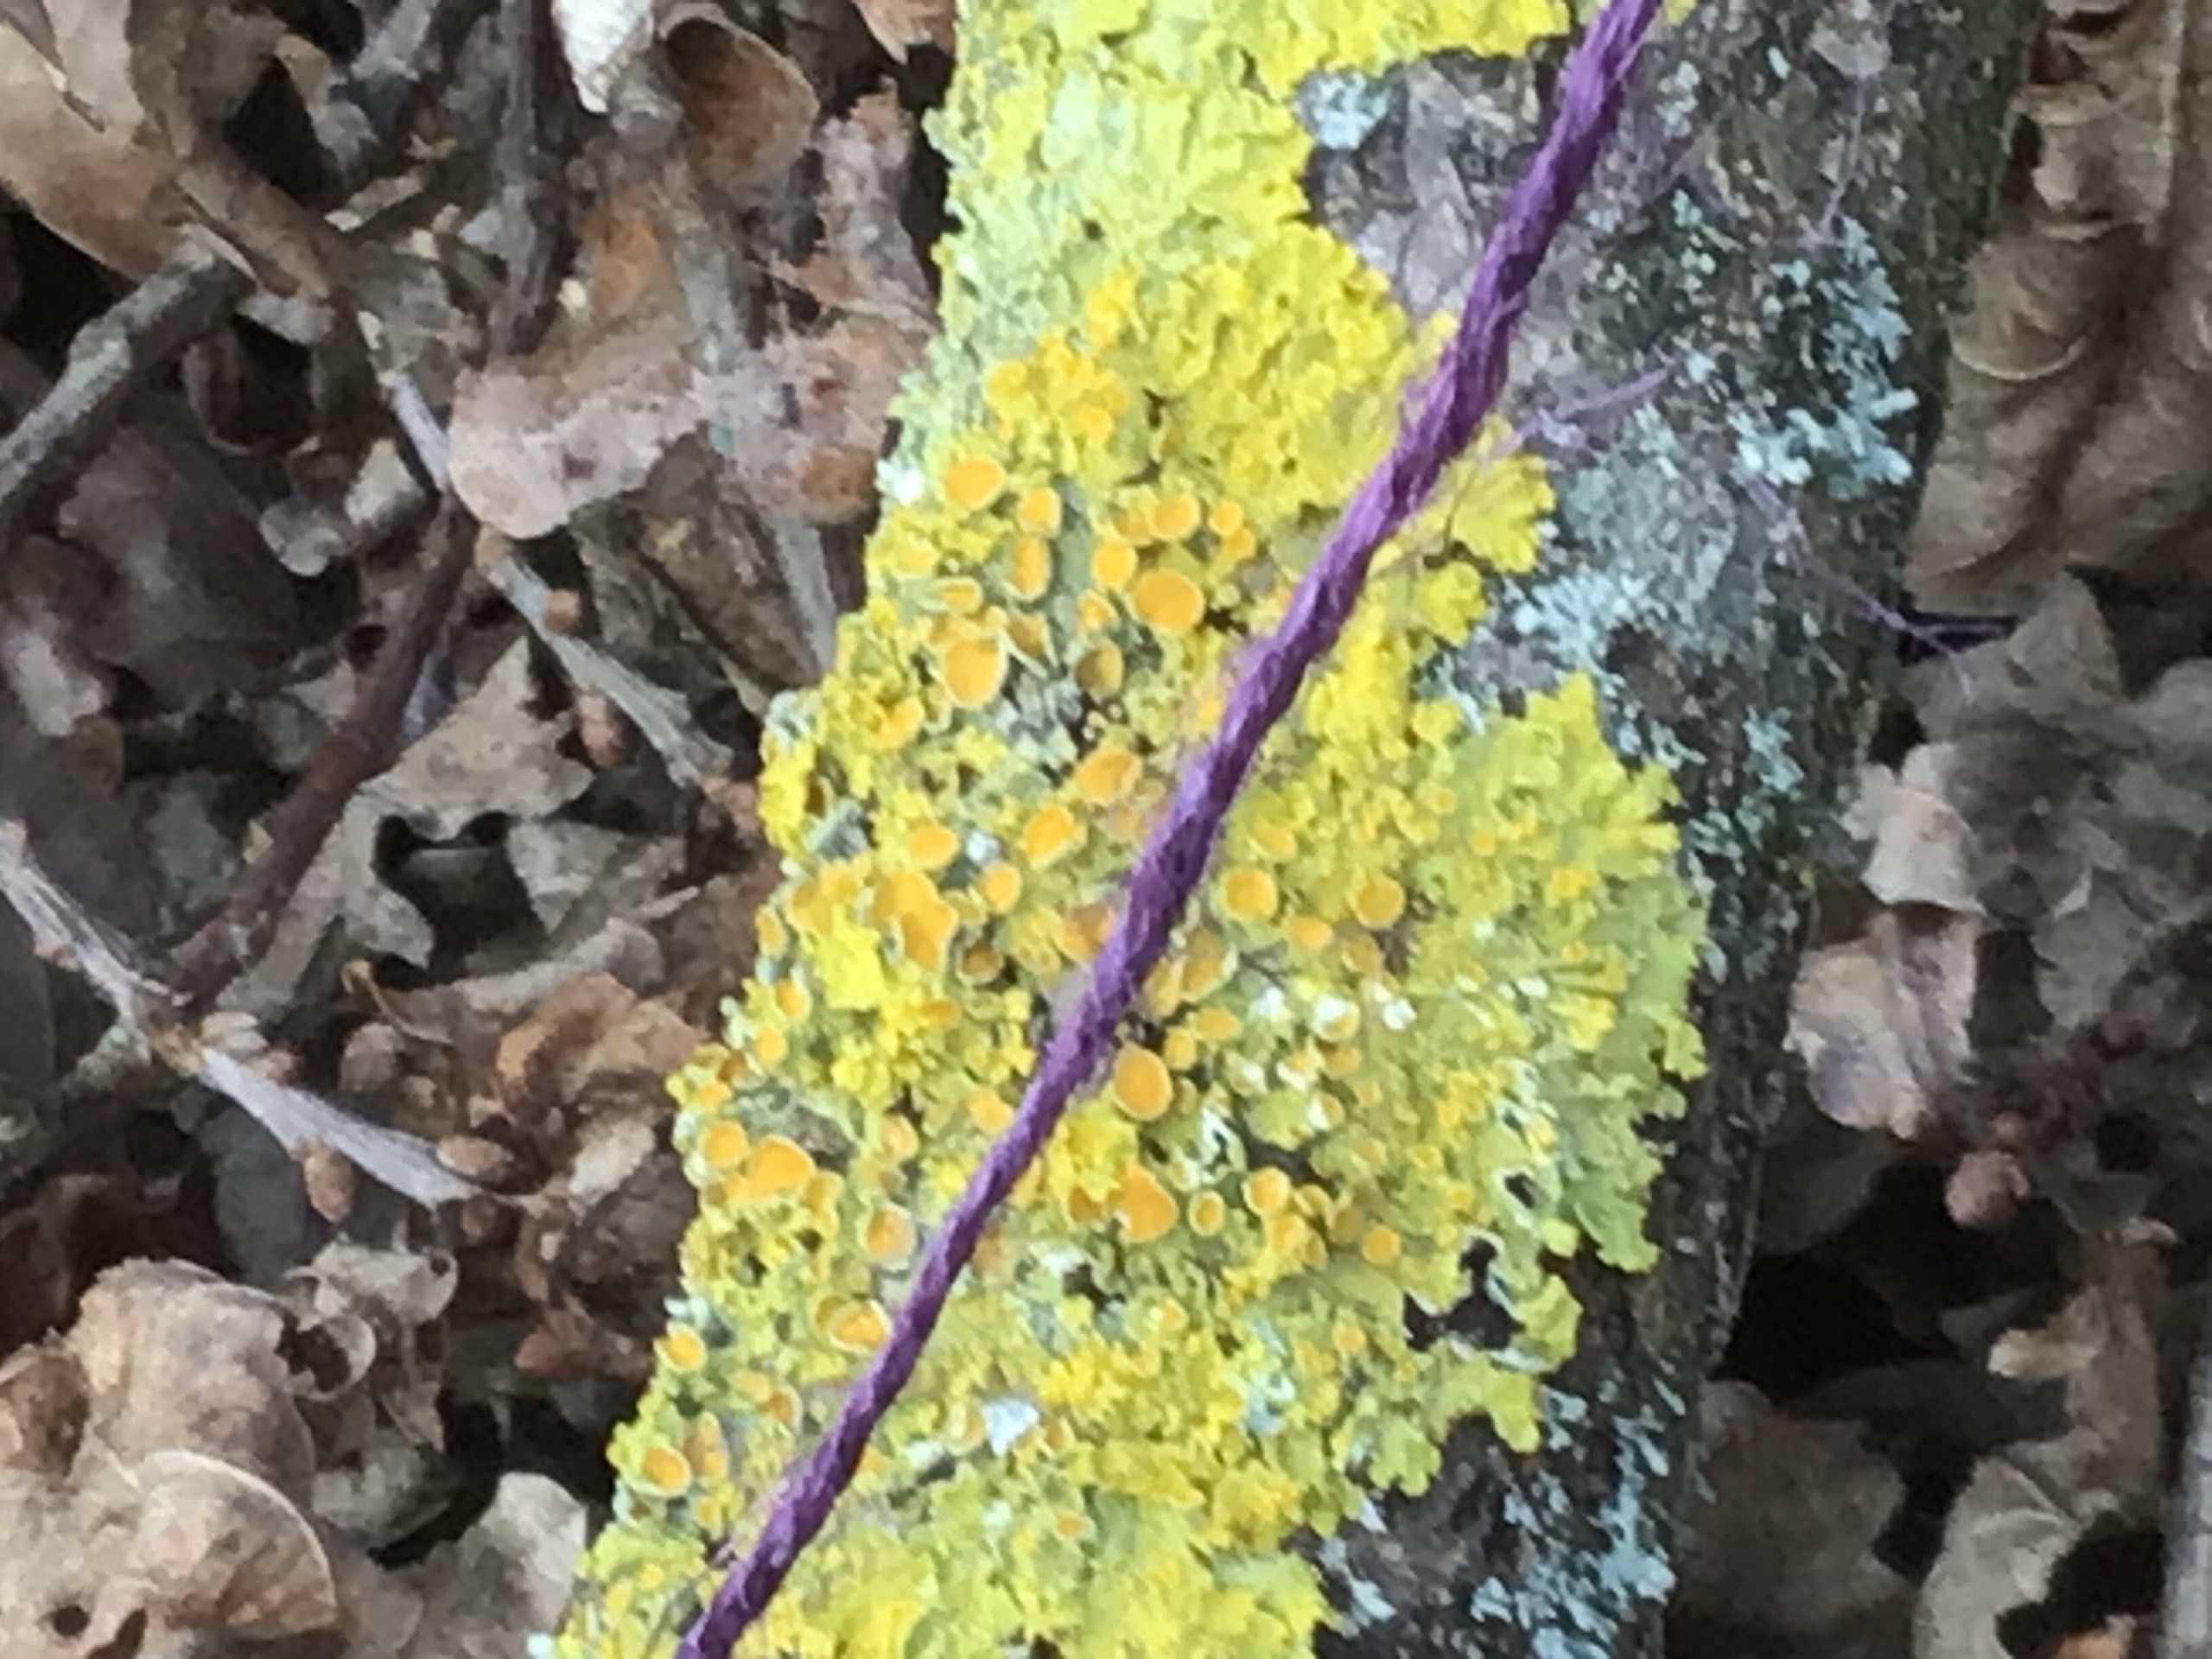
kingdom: Fungi
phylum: Ascomycota
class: Lecanoromycetes
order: Teloschistales
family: Teloschistaceae
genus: Xanthoria
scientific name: Xanthoria parietina
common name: Almindelig væggelav
